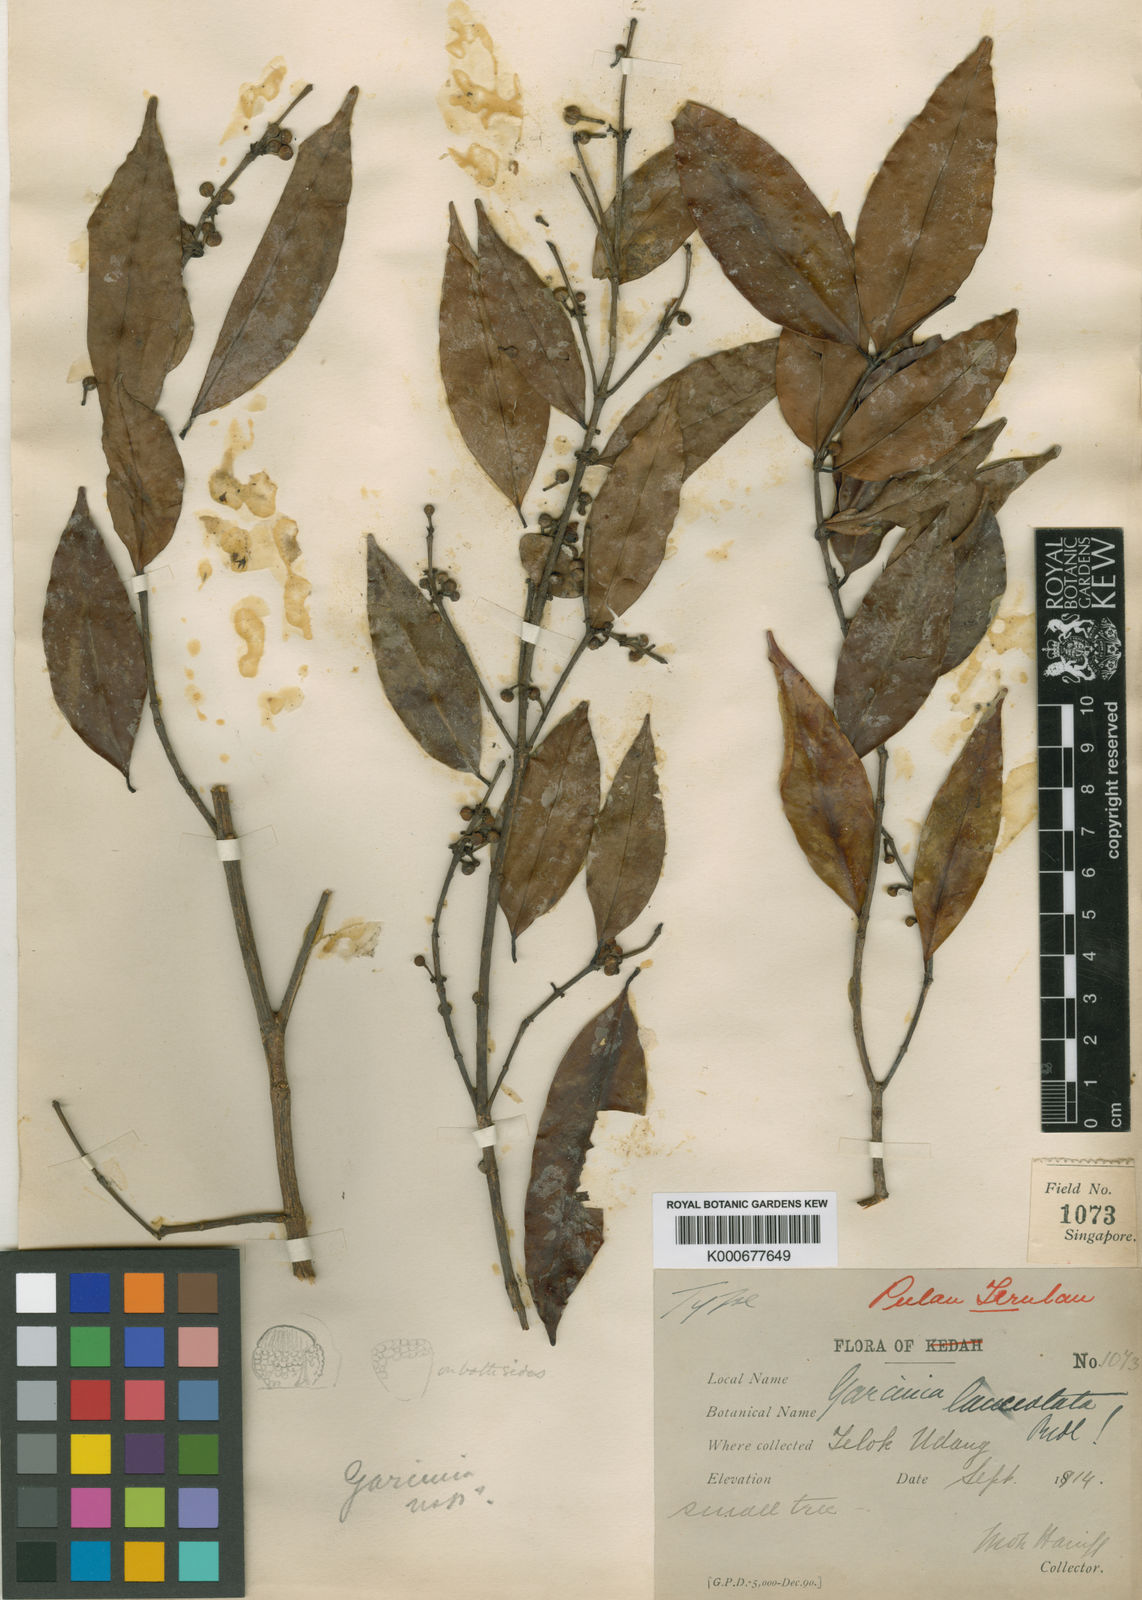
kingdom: Plantae
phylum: Tracheophyta
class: Magnoliopsida
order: Malpighiales
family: Clusiaceae
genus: Garcinia
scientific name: Garcinia merguensis
